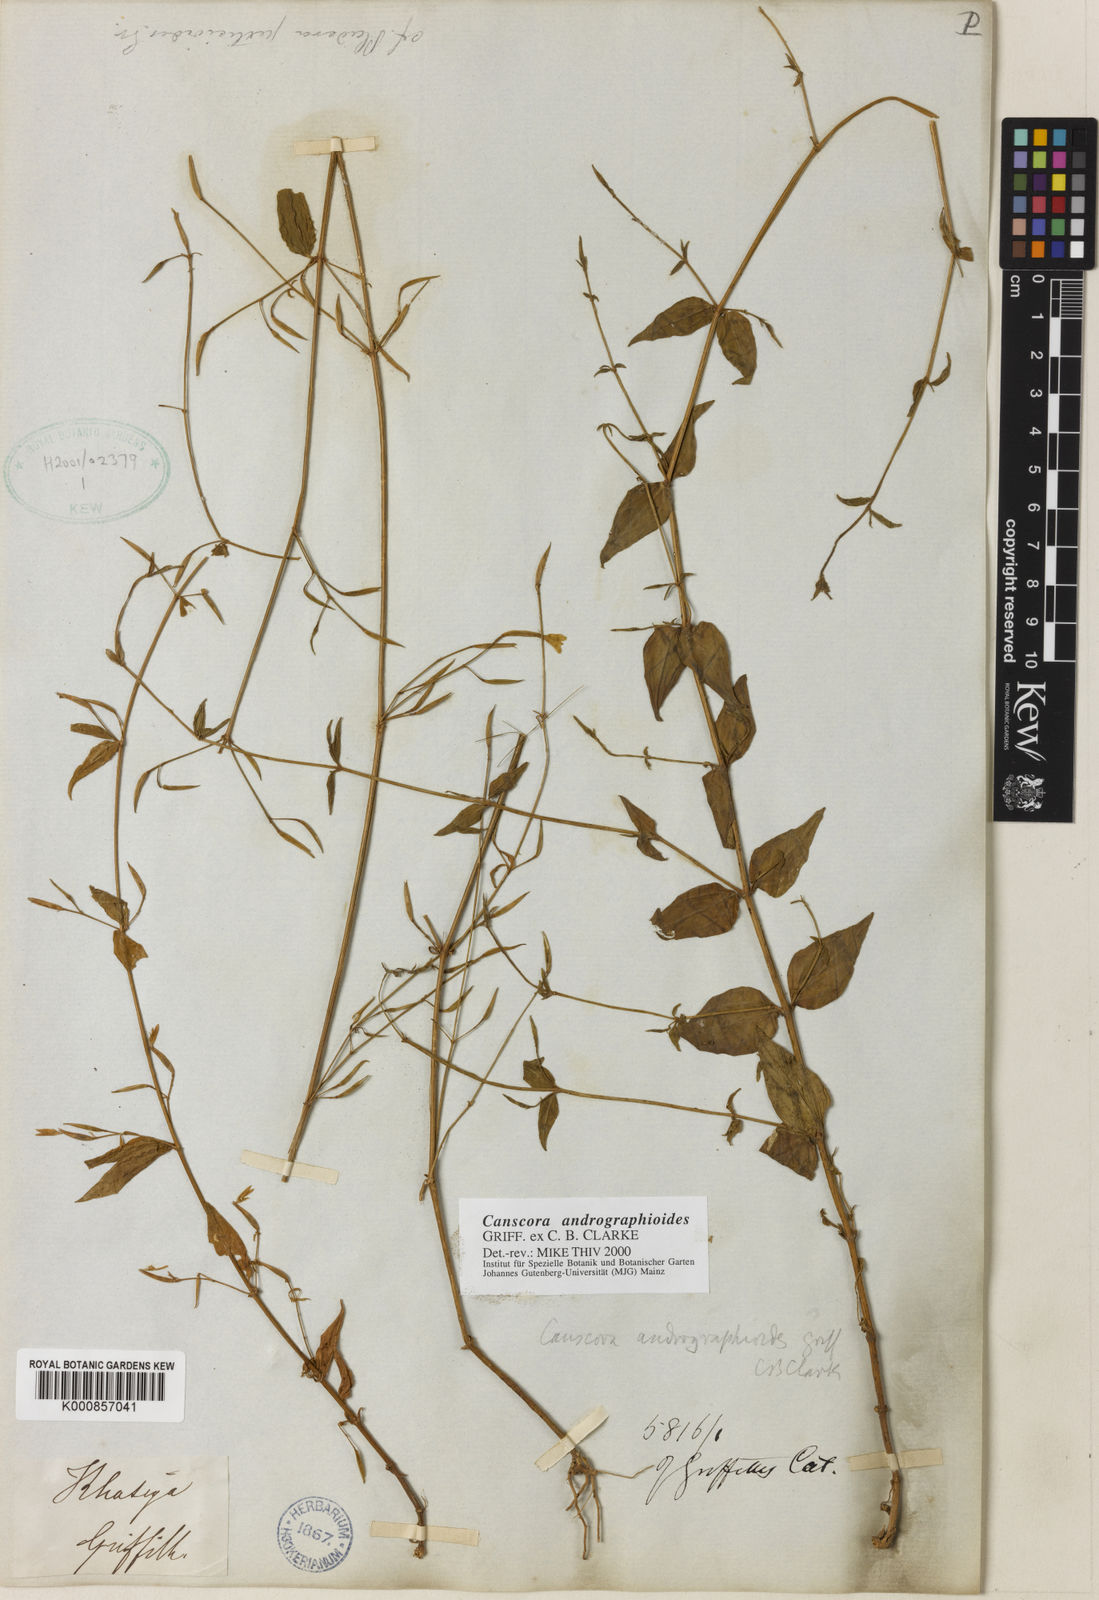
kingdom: Plantae
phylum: Tracheophyta
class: Magnoliopsida
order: Gentianales
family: Gentianaceae
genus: Canscora
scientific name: Canscora andrographioides
